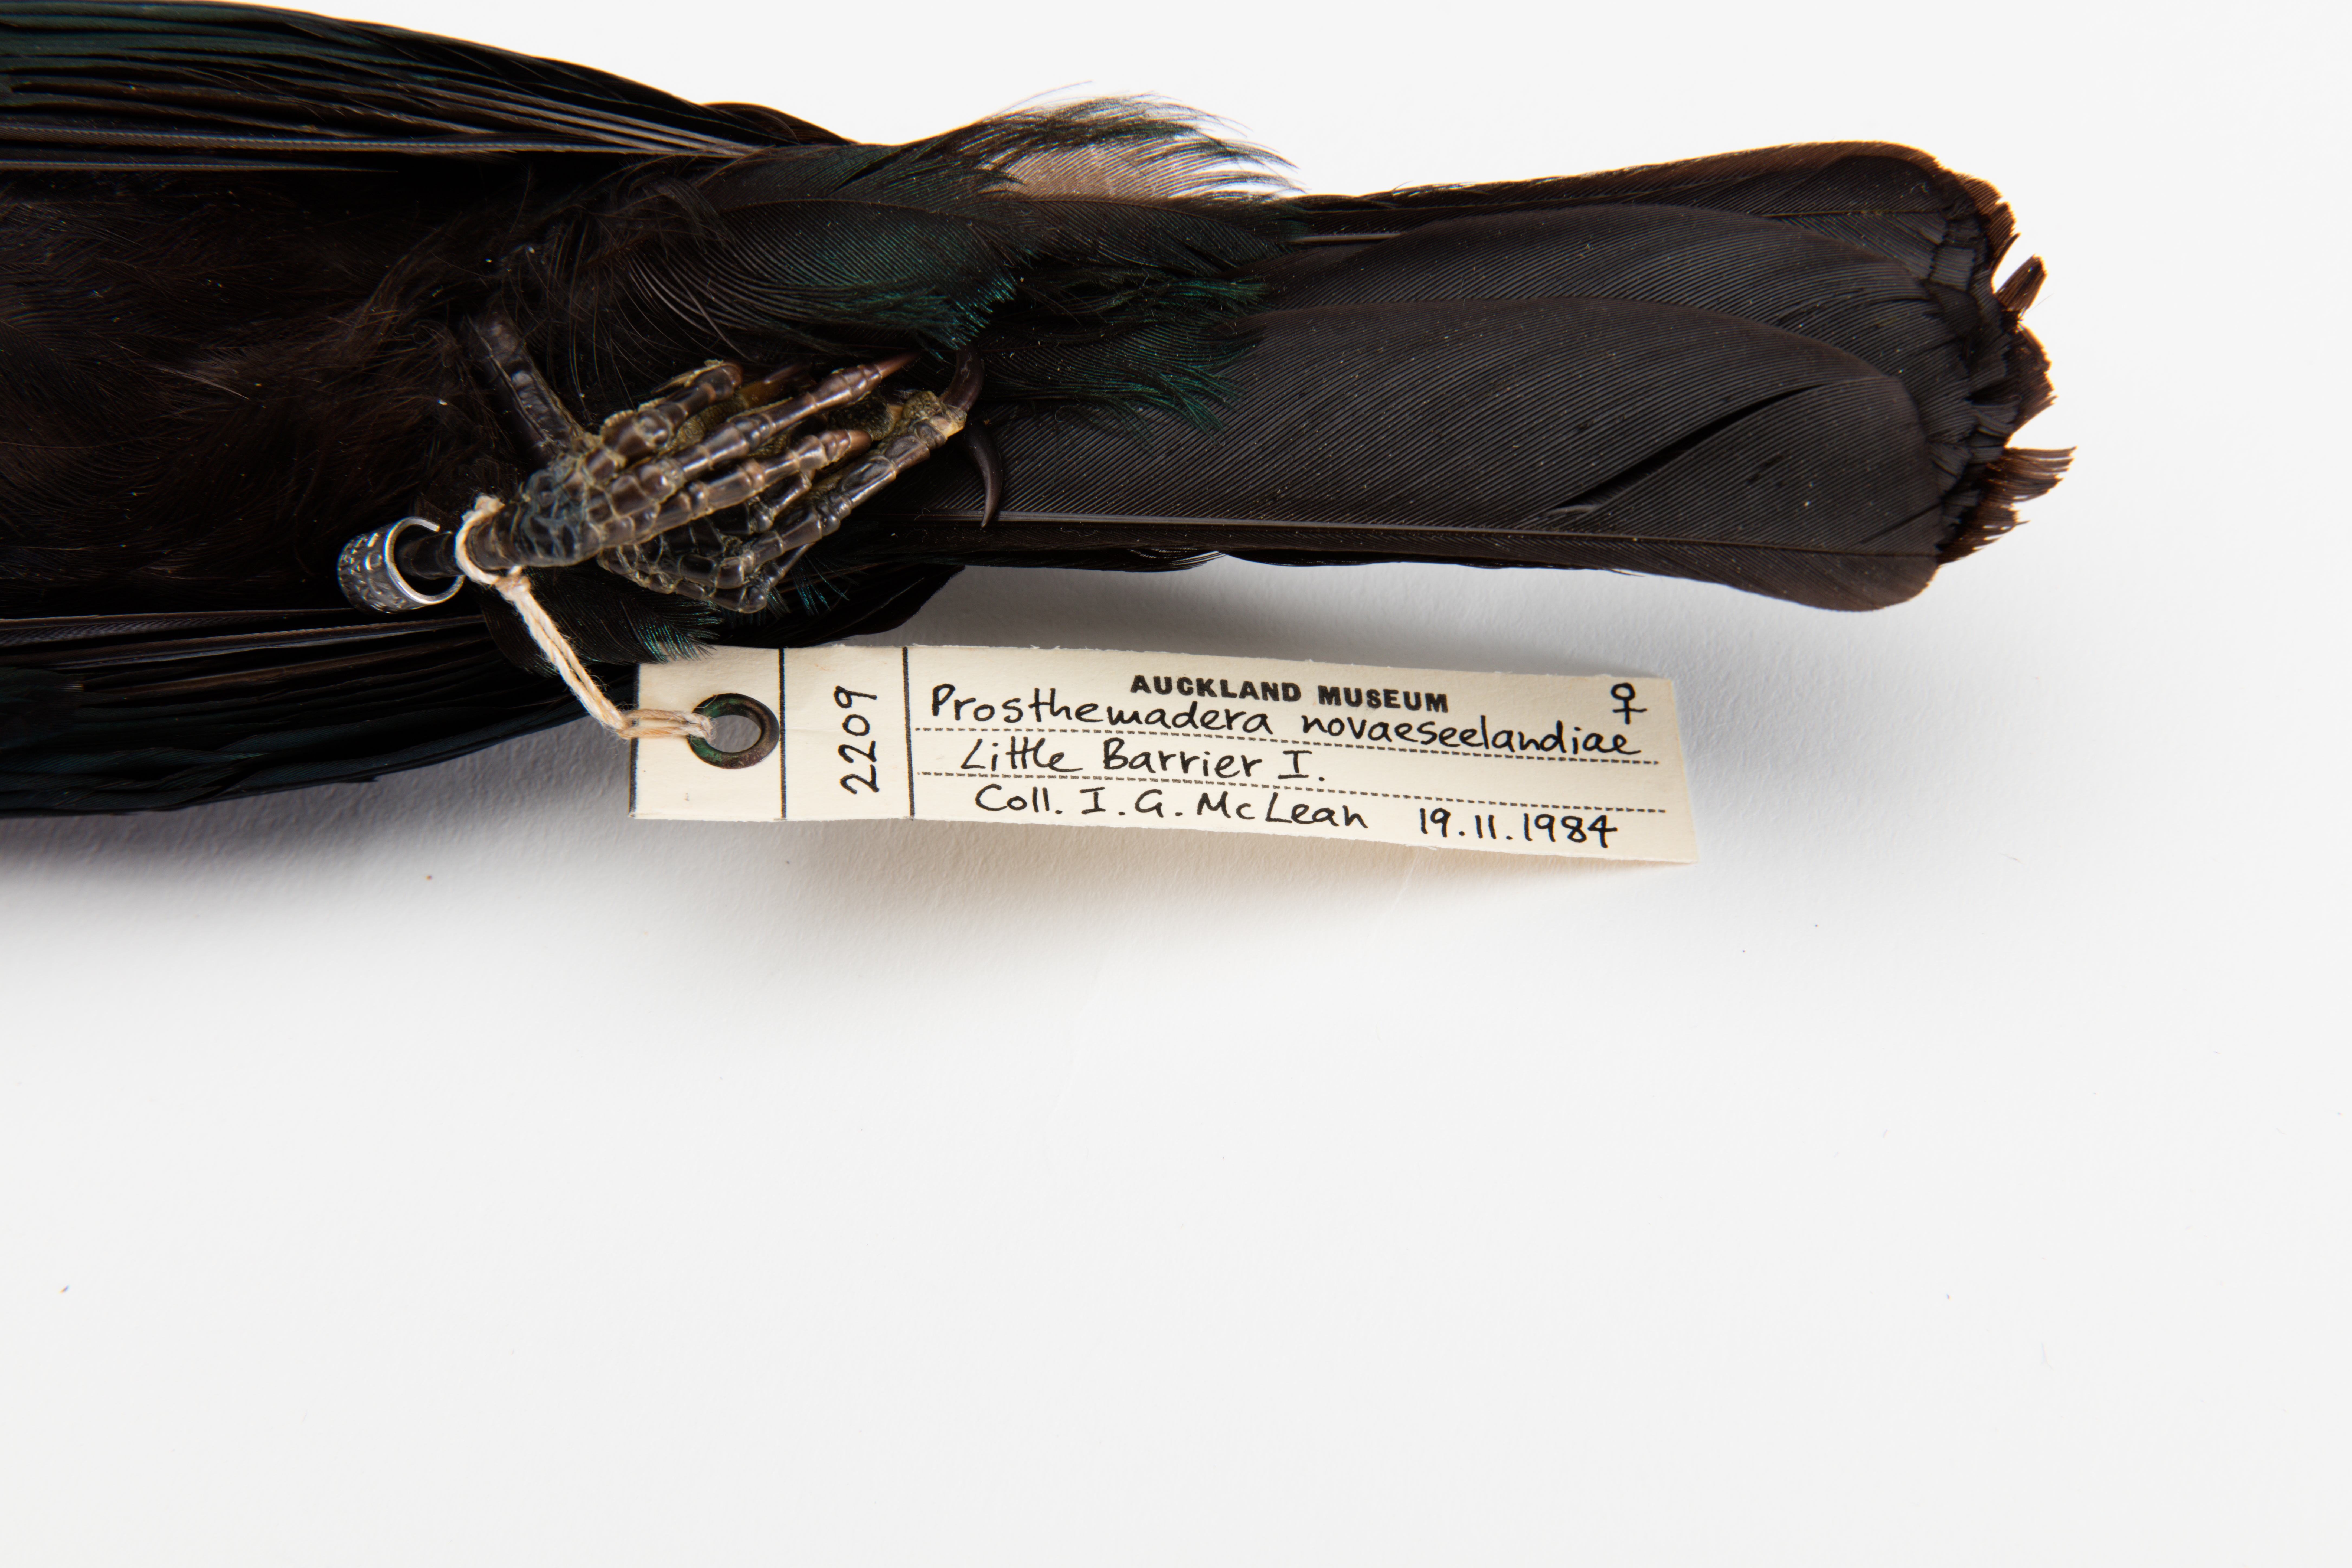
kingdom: Animalia
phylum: Chordata
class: Aves
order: Passeriformes
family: Meliphagidae
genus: Prosthemadera
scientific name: Prosthemadera novaeseelandiae
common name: Tui
